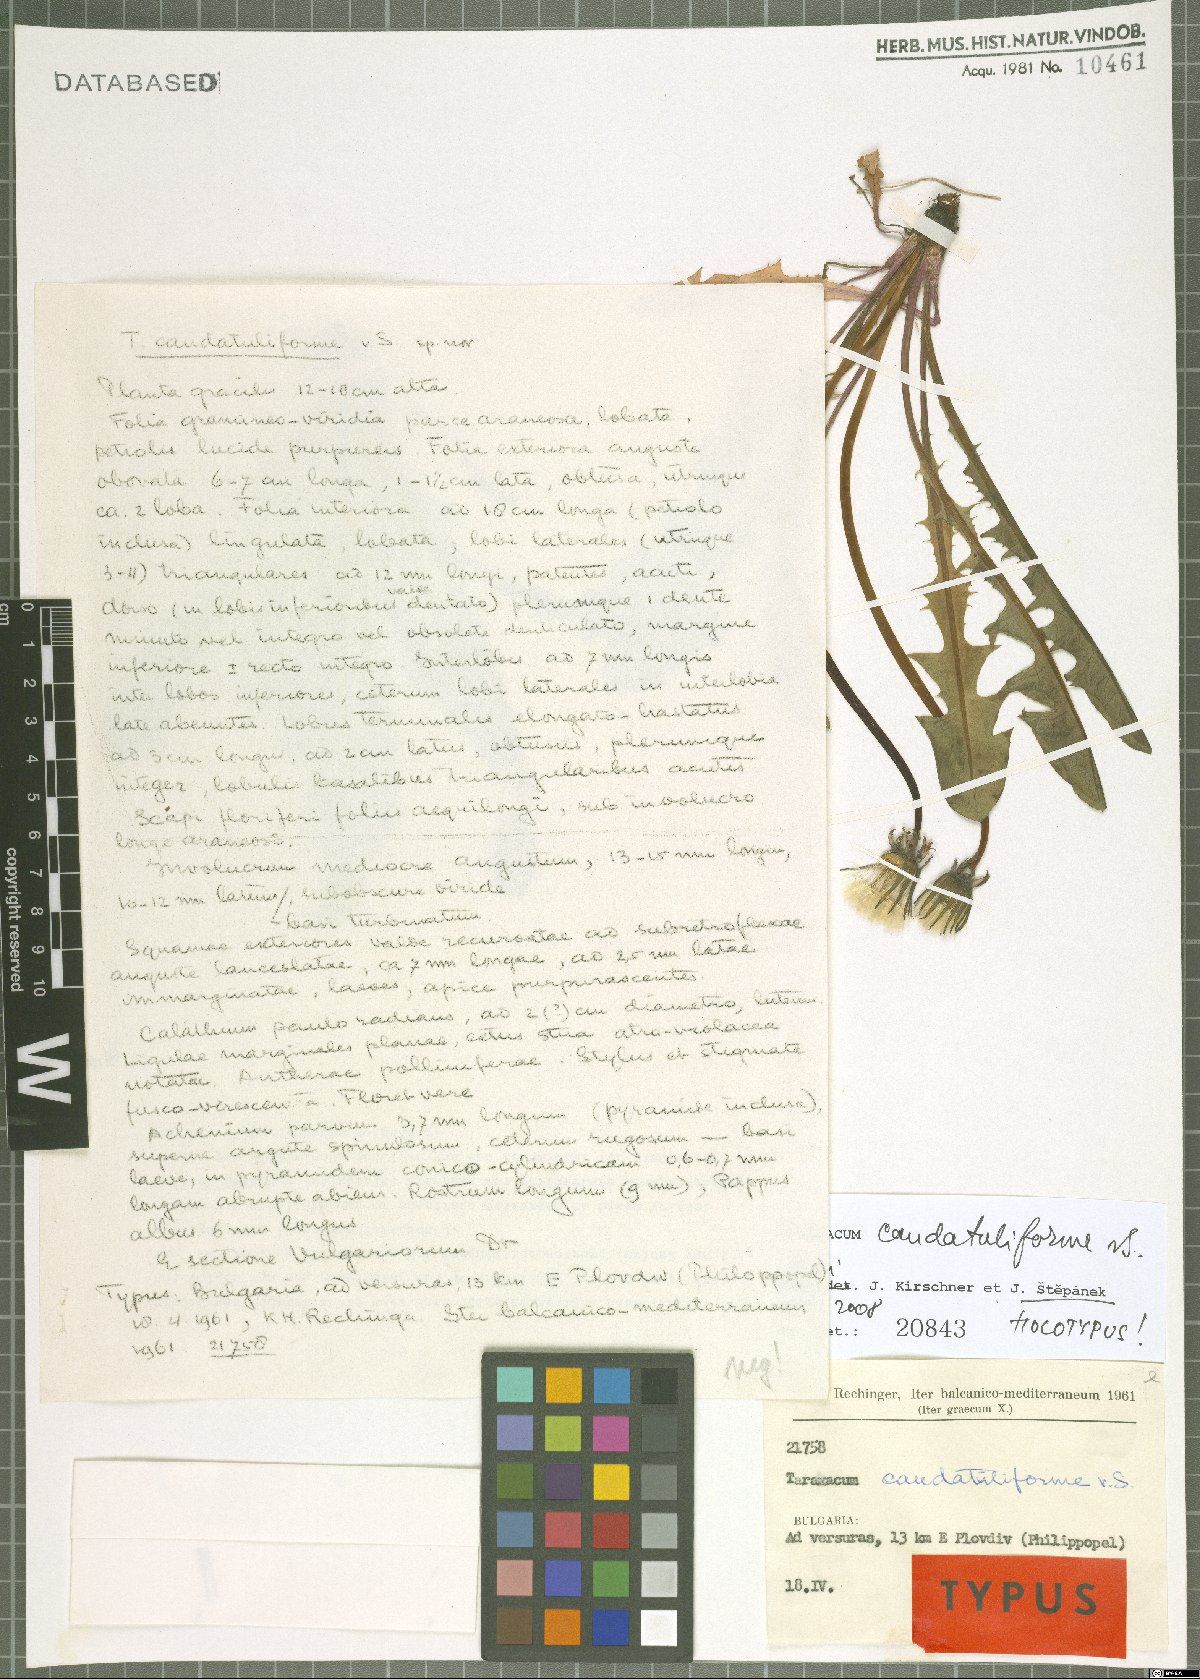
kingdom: Plantae
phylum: Tracheophyta
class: Magnoliopsida
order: Asterales
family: Asteraceae
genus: Taraxacum
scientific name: Taraxacum caudatuliforme
